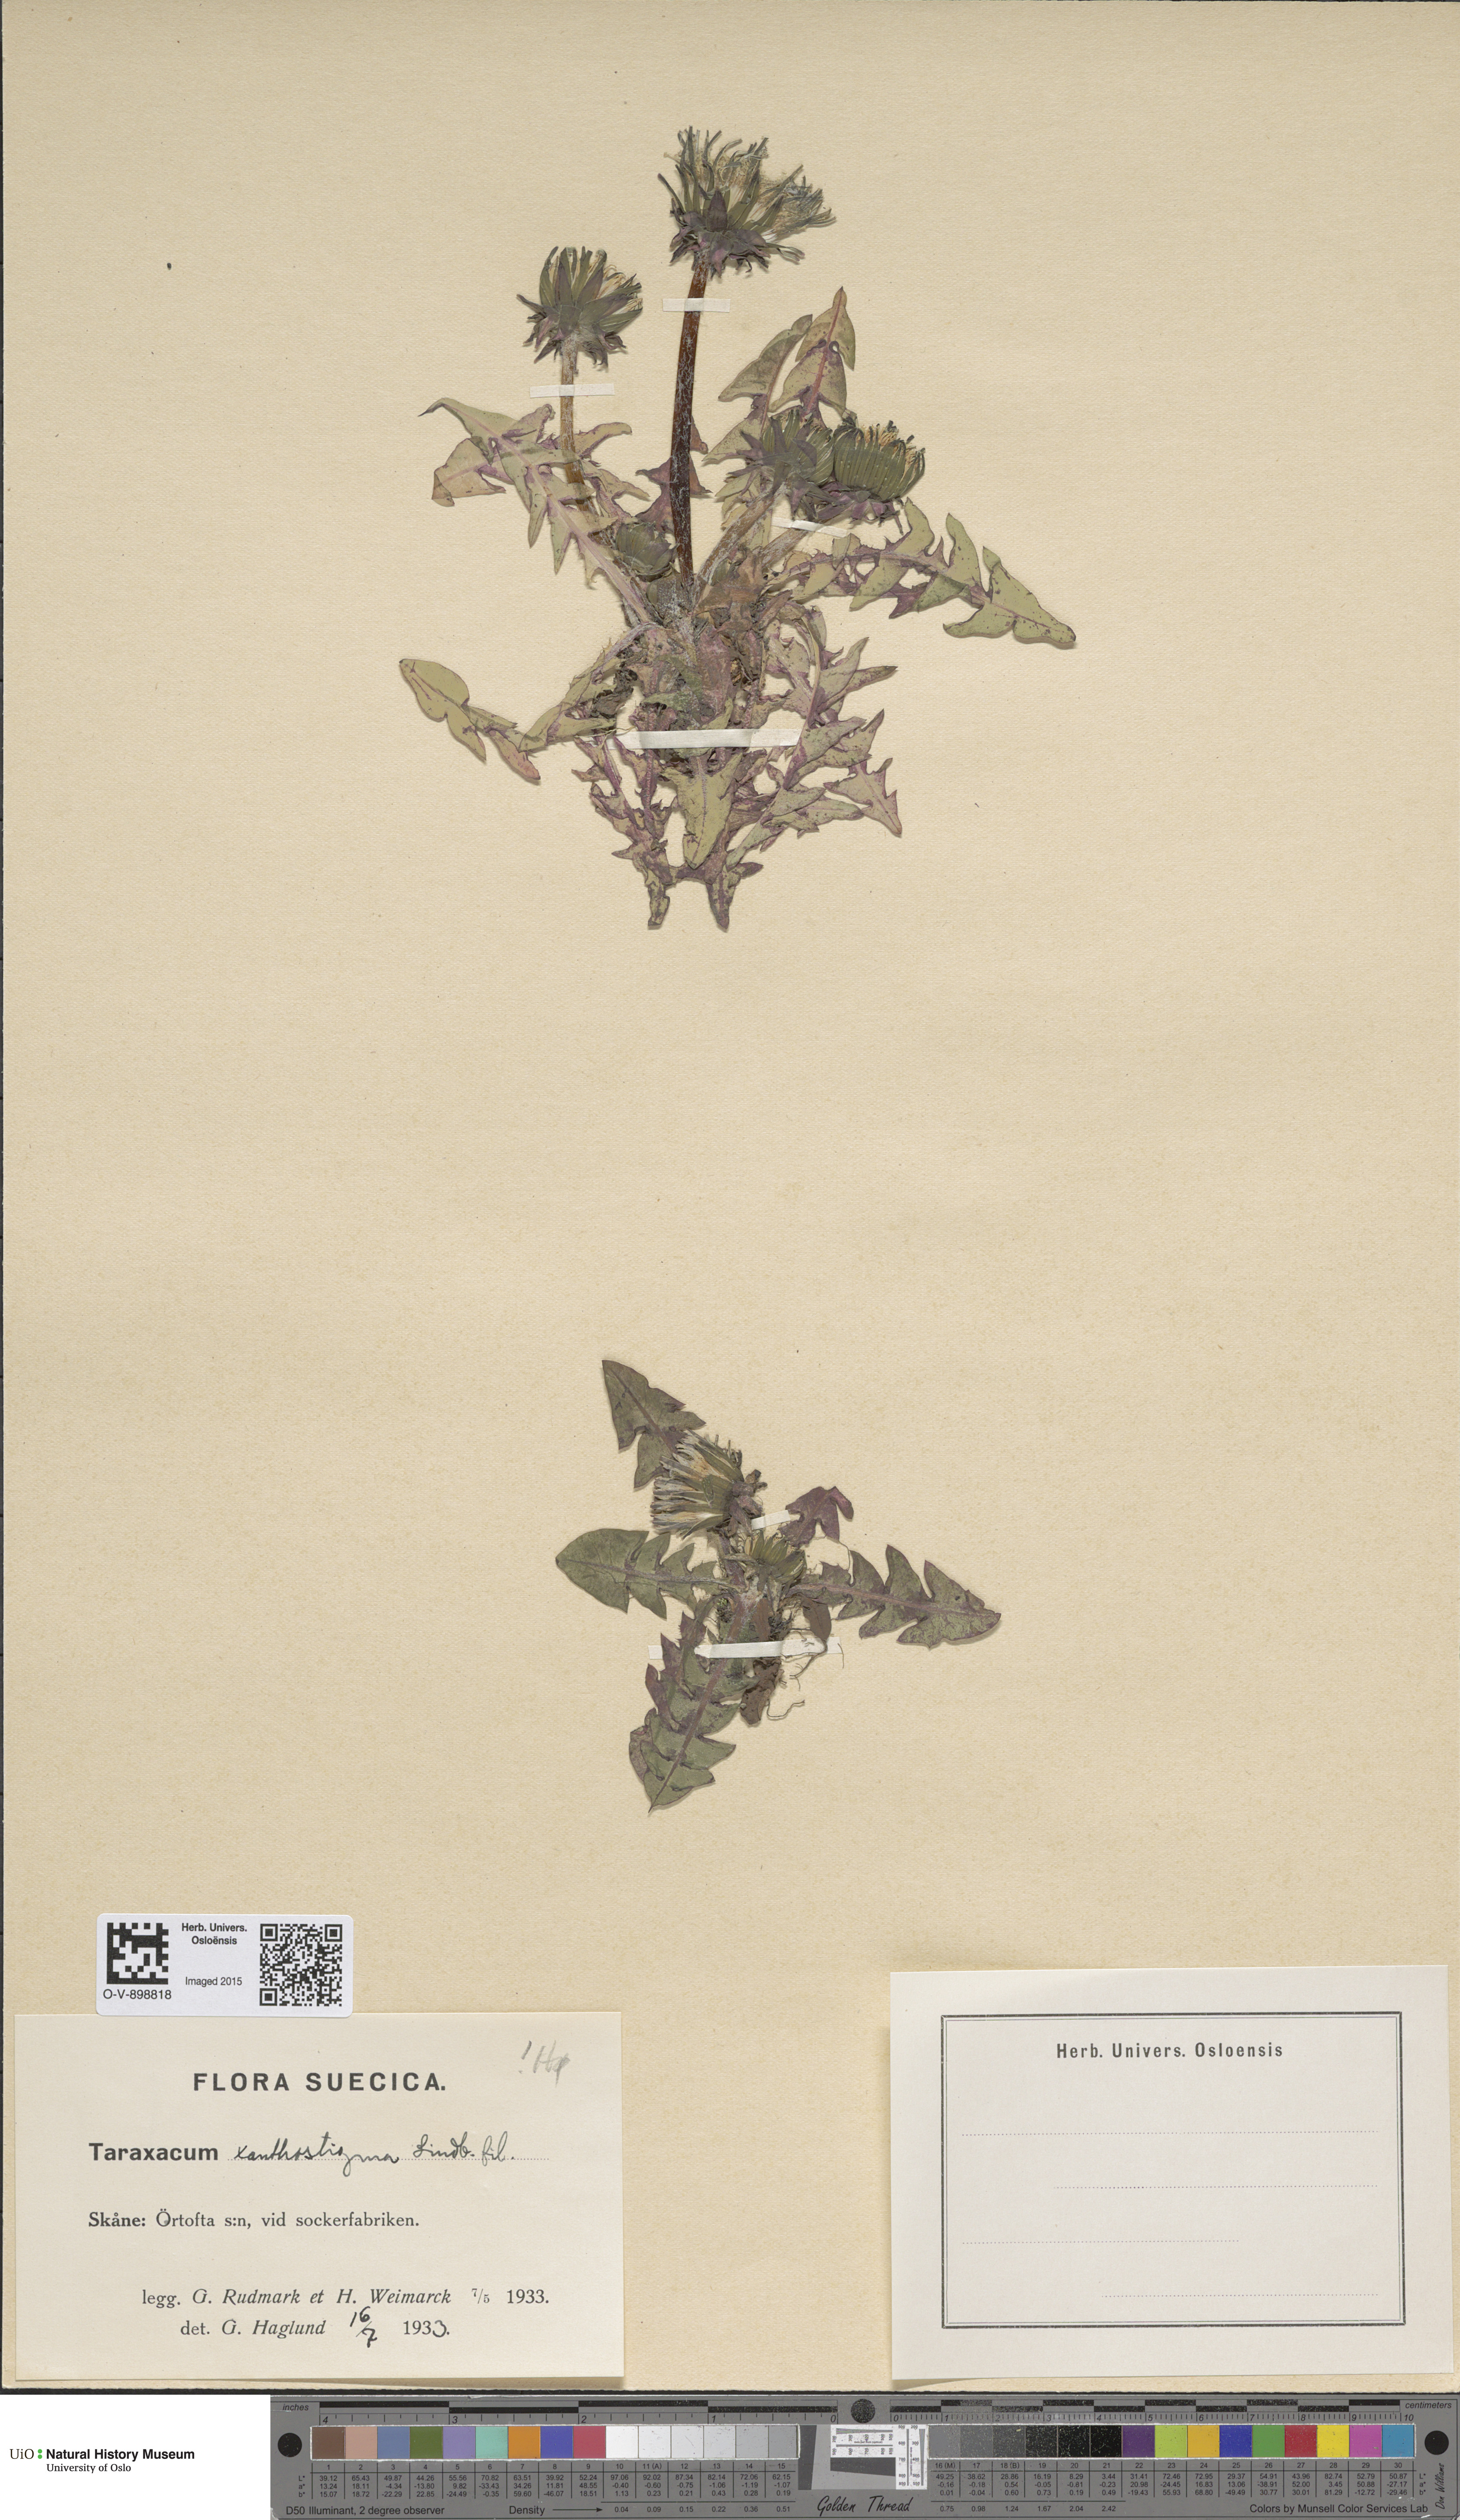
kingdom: Plantae
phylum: Tracheophyta
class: Magnoliopsida
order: Asterales
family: Asteraceae
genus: Taraxacum
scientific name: Taraxacum xanthostigma
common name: Ochre-styled dandelion
